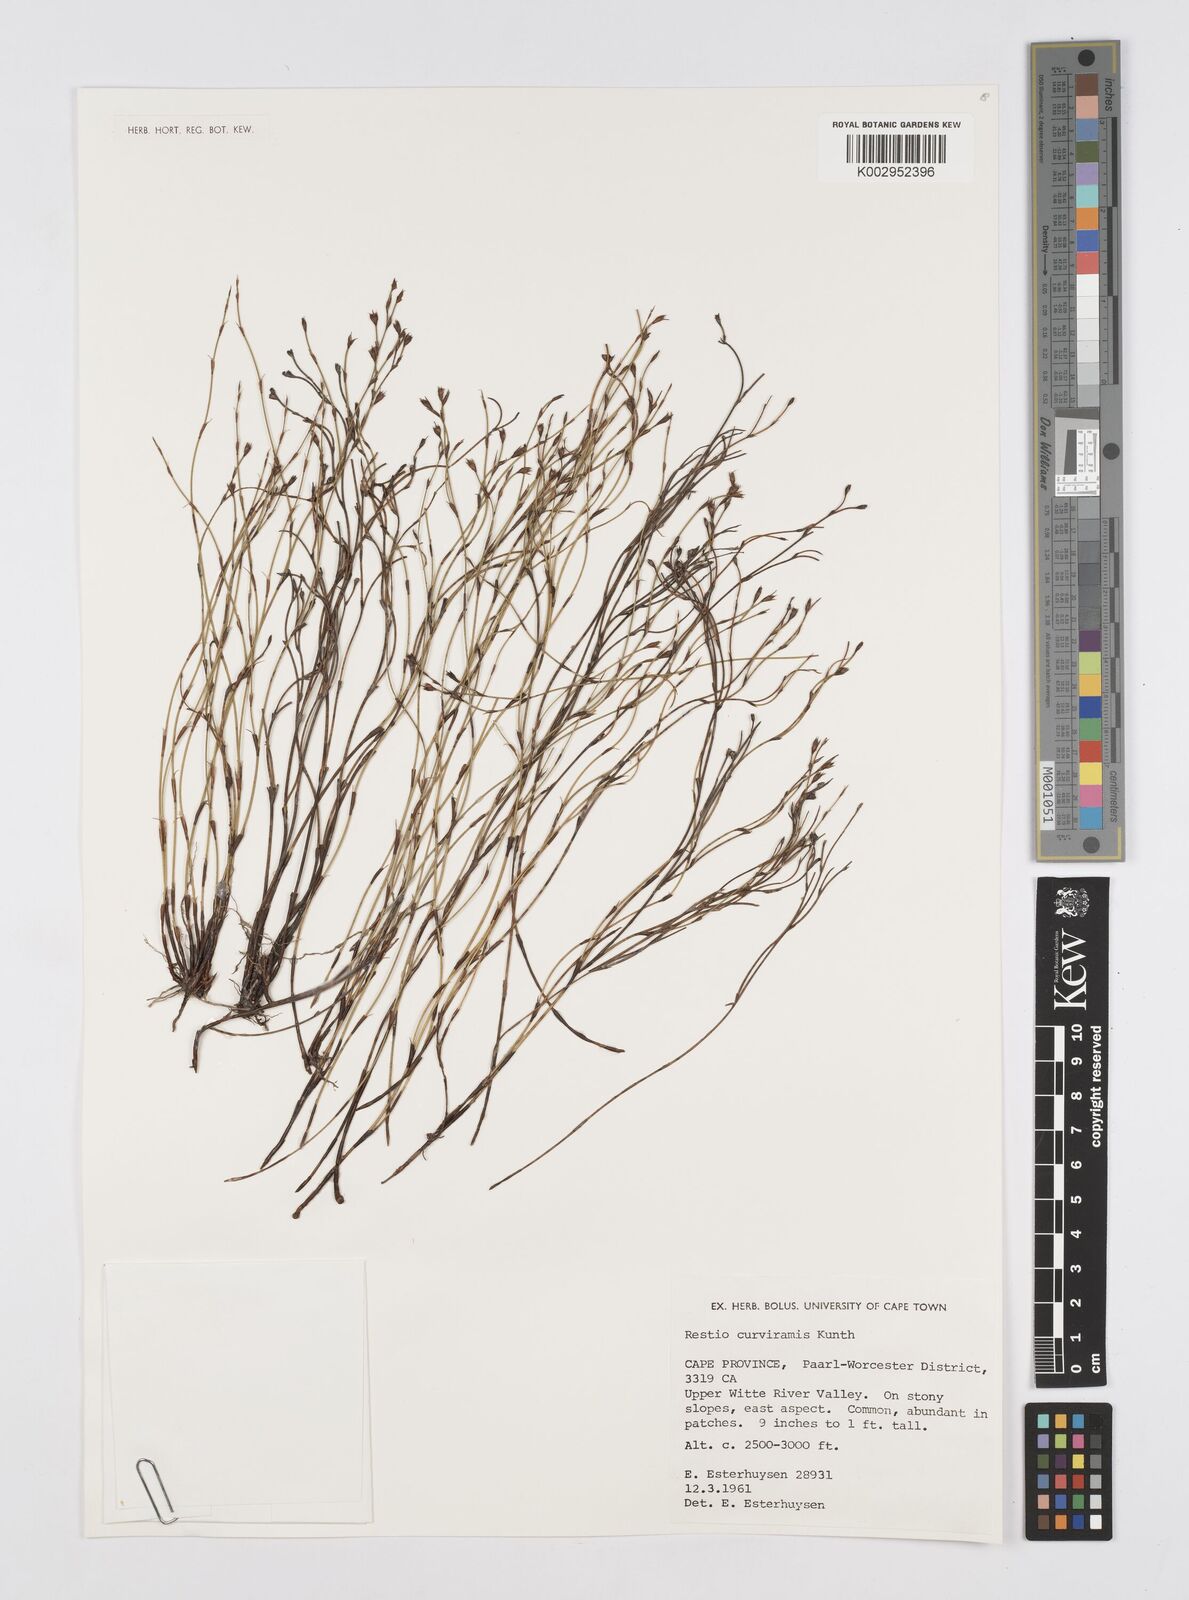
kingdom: Plantae
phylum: Tracheophyta
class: Liliopsida
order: Poales
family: Restionaceae
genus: Restio
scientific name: Restio curviramis
